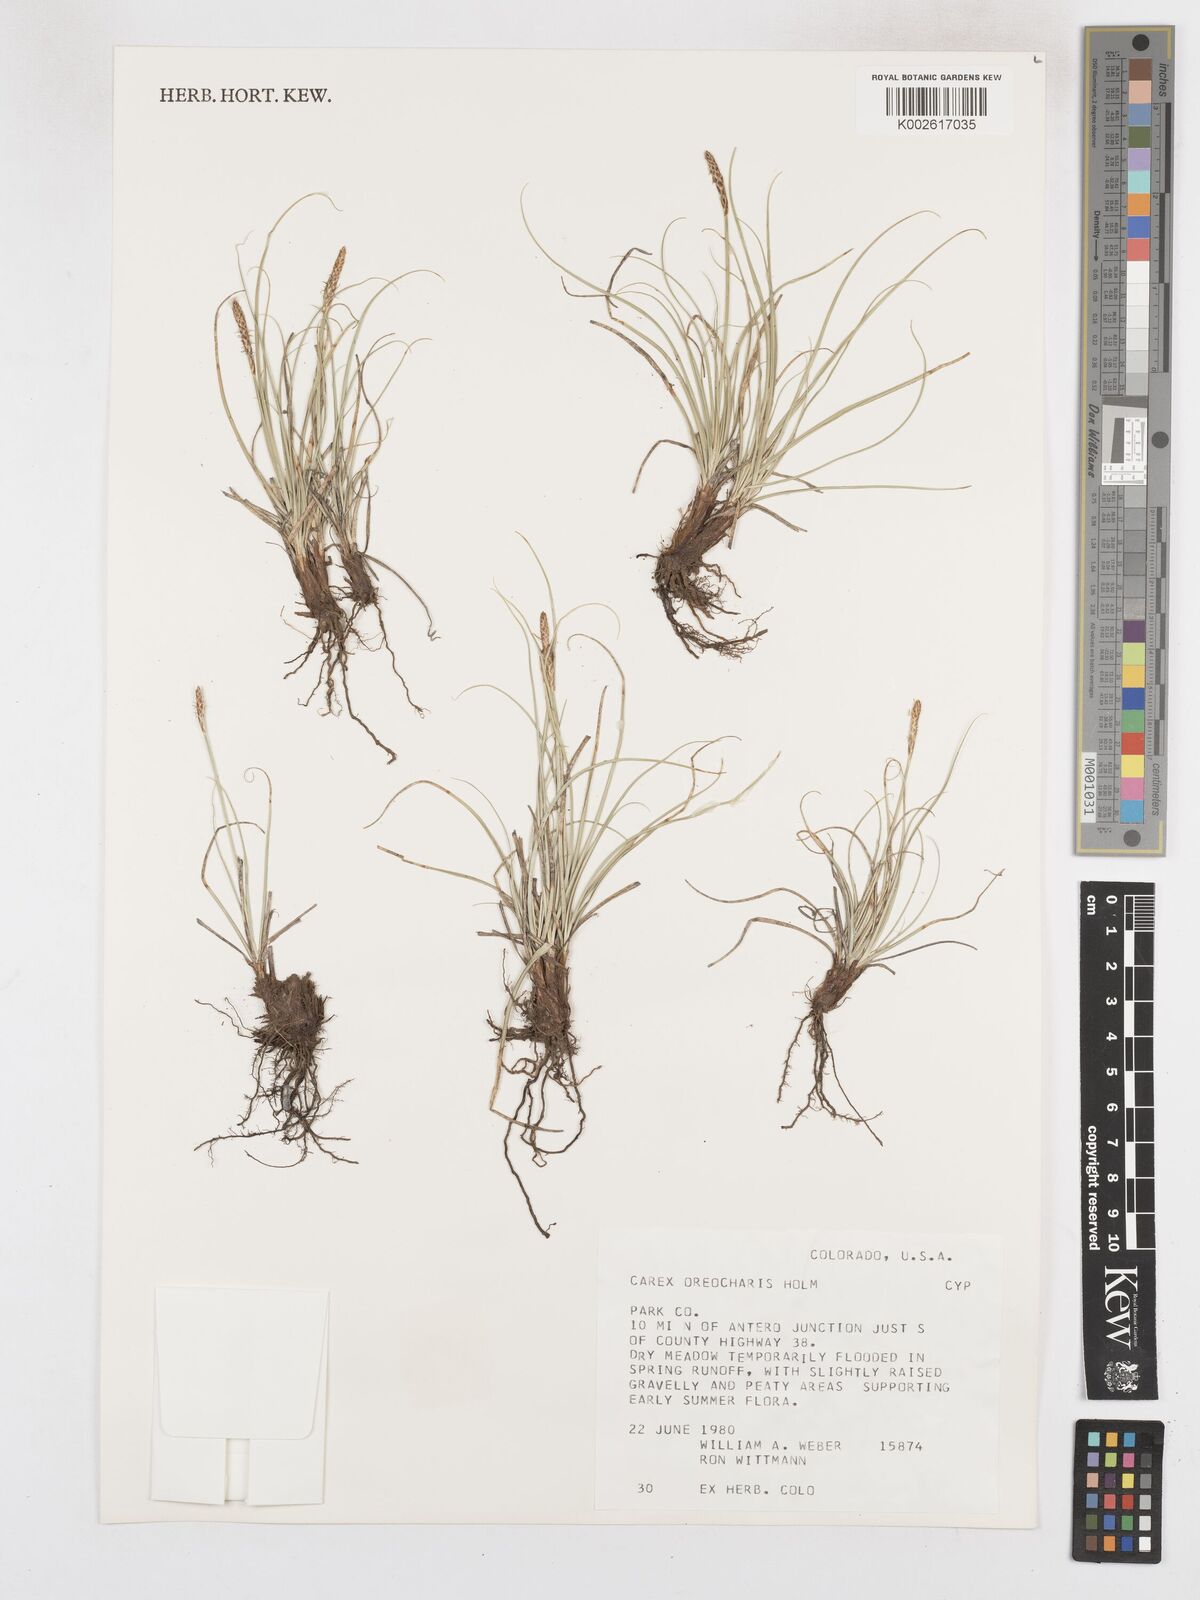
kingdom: Plantae
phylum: Tracheophyta
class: Liliopsida
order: Poales
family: Cyperaceae
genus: Carex
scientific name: Carex oreocharis
